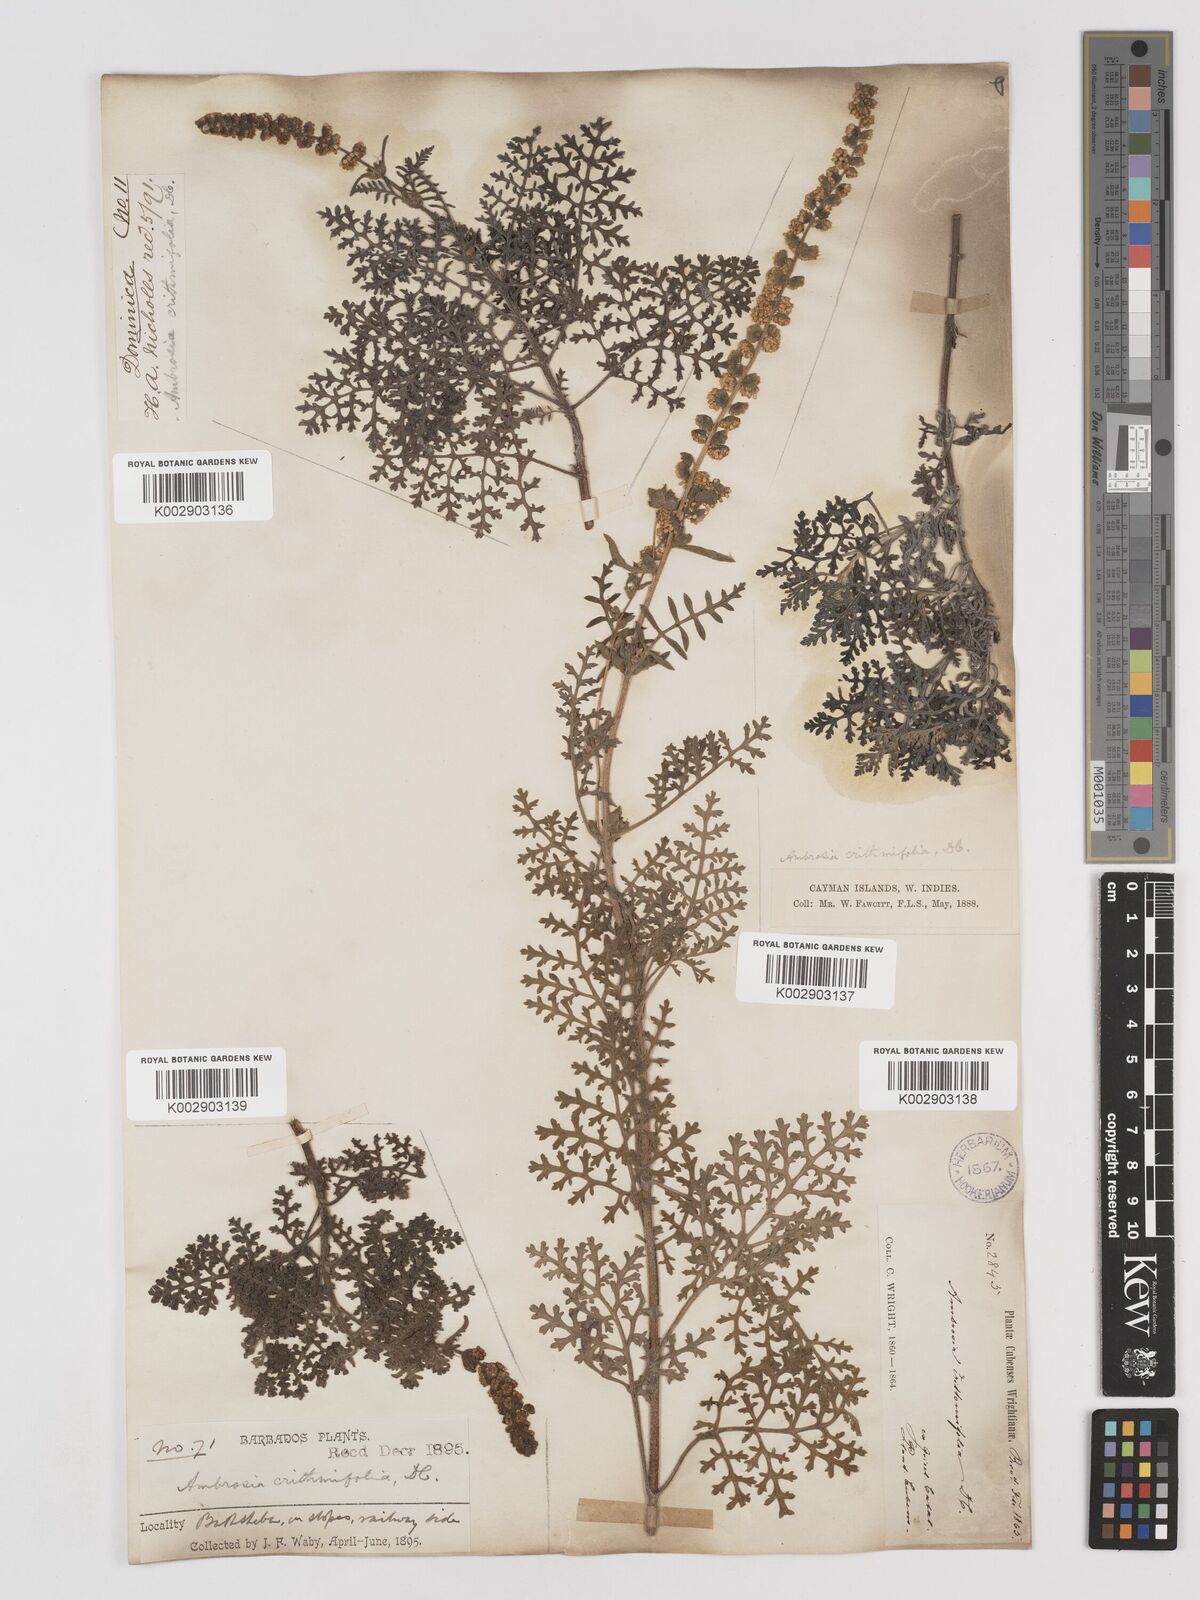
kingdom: Plantae
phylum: Tracheophyta
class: Magnoliopsida
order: Asterales
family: Asteraceae
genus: Ambrosia
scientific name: Ambrosia hispida
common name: Coastal ragweed
